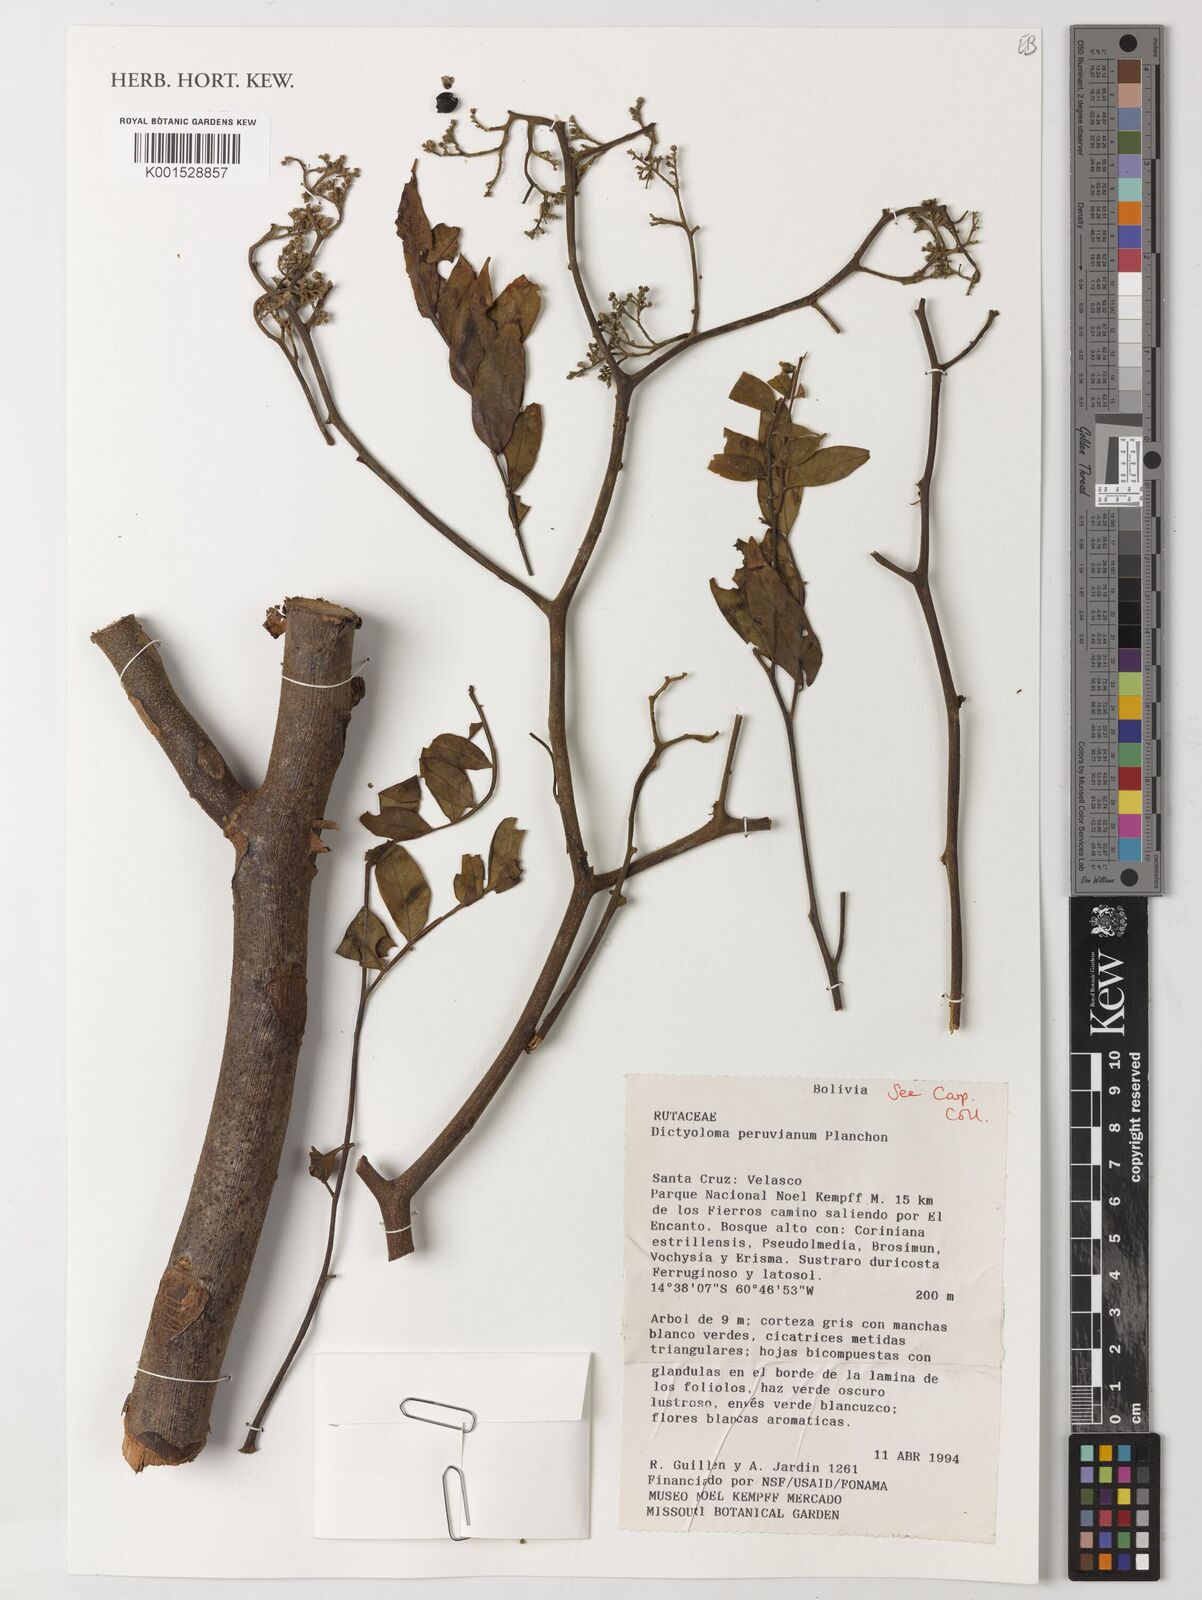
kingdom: Plantae
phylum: Tracheophyta
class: Magnoliopsida
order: Sapindales
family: Rutaceae
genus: Dictyoloma
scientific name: Dictyoloma vandellianum
